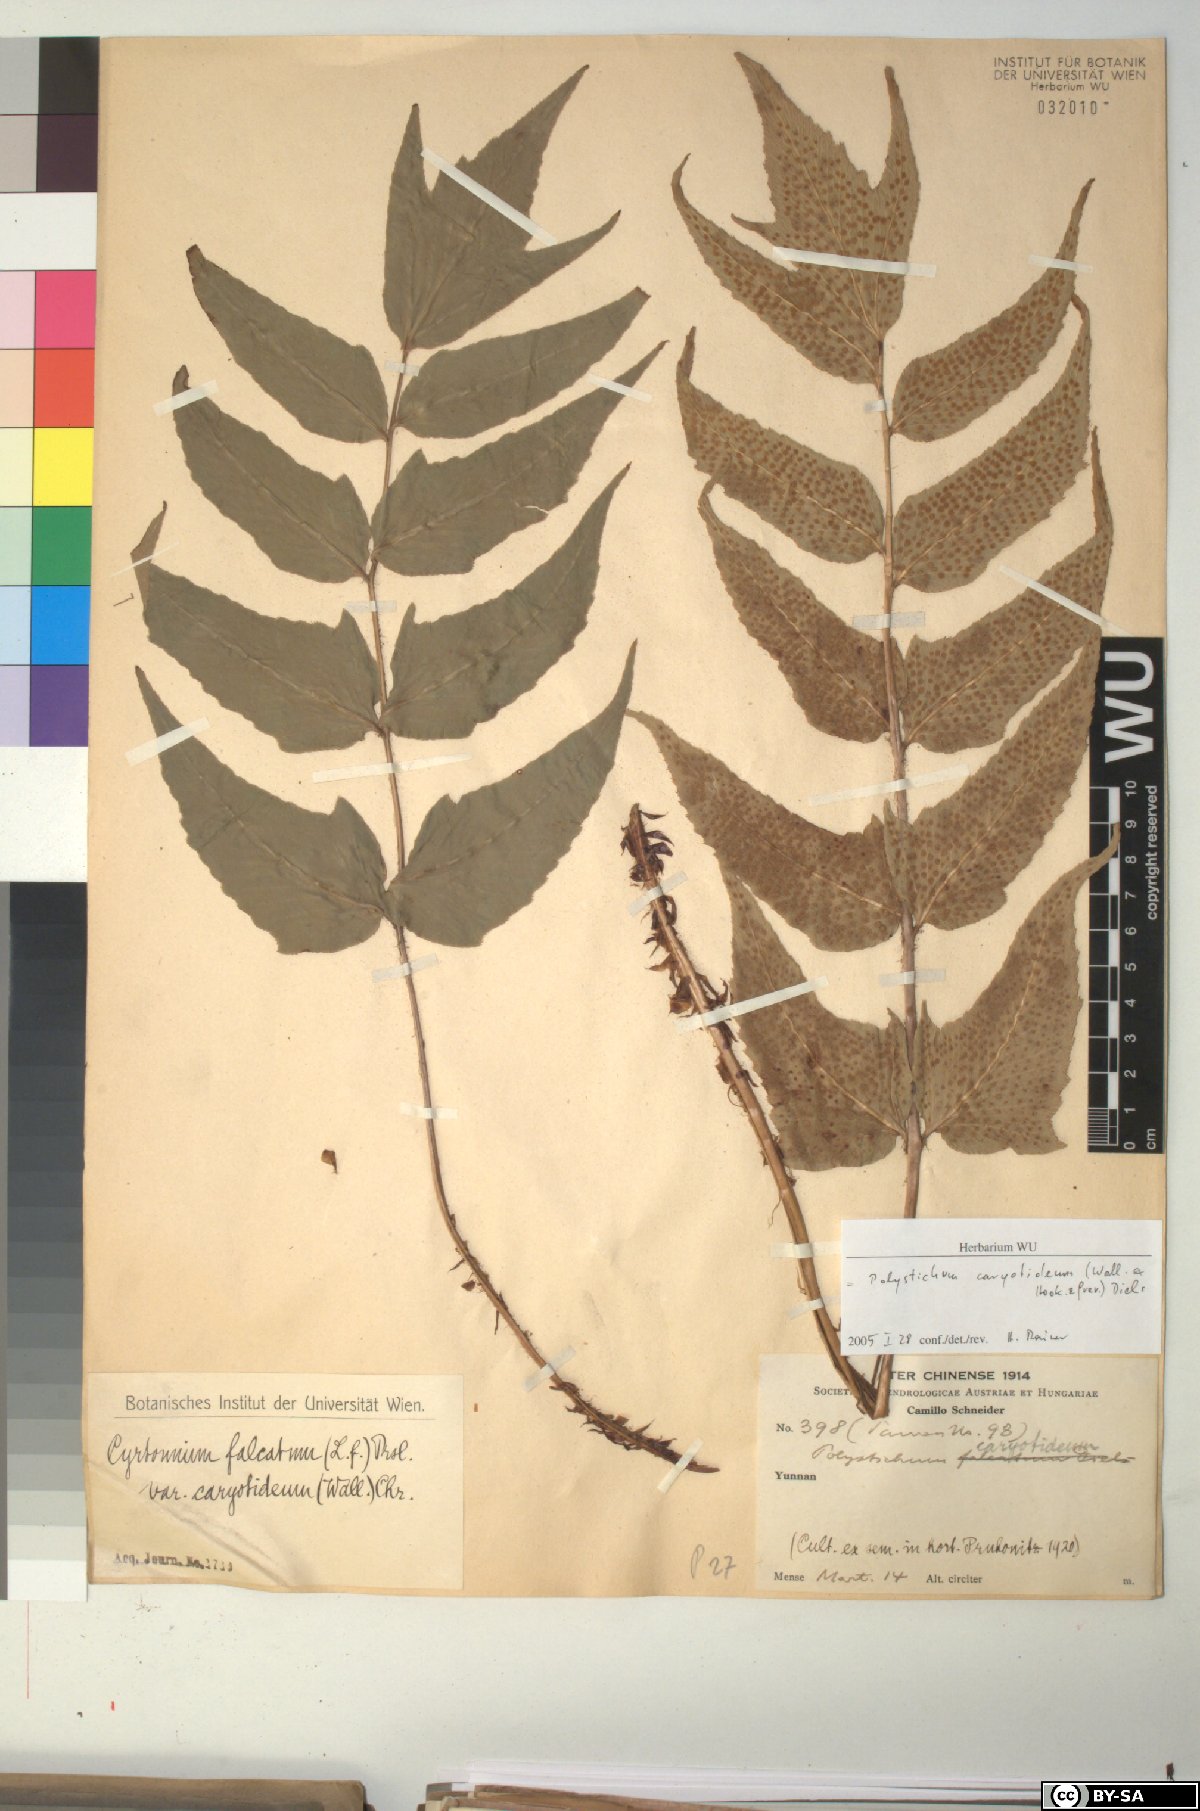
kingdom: Plantae
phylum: Tracheophyta
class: Polypodiopsida
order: Polypodiales
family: Dryopteridaceae
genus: Cyrtomium
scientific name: Cyrtomium caryotideum
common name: Asiatic holly fern
